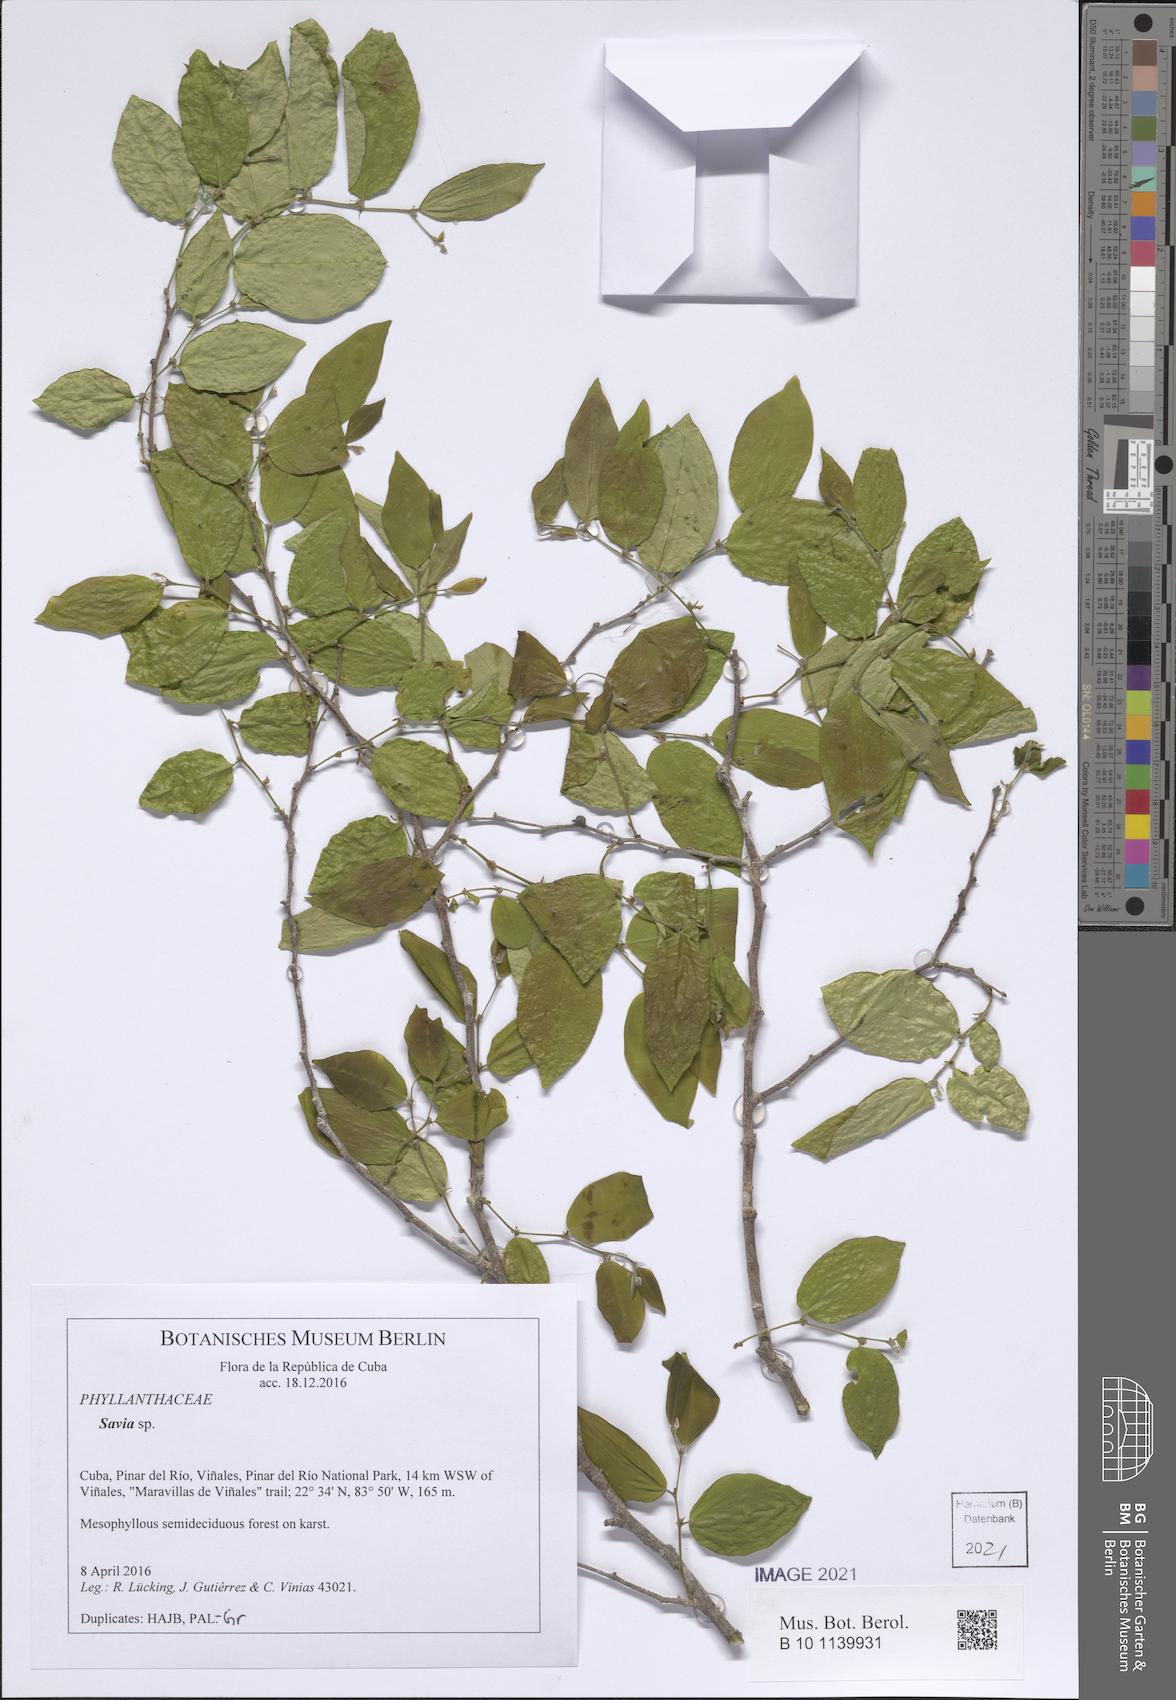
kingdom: Plantae
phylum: Tracheophyta
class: Magnoliopsida
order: Malpighiales
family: Phyllanthaceae
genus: Savia
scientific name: Savia
